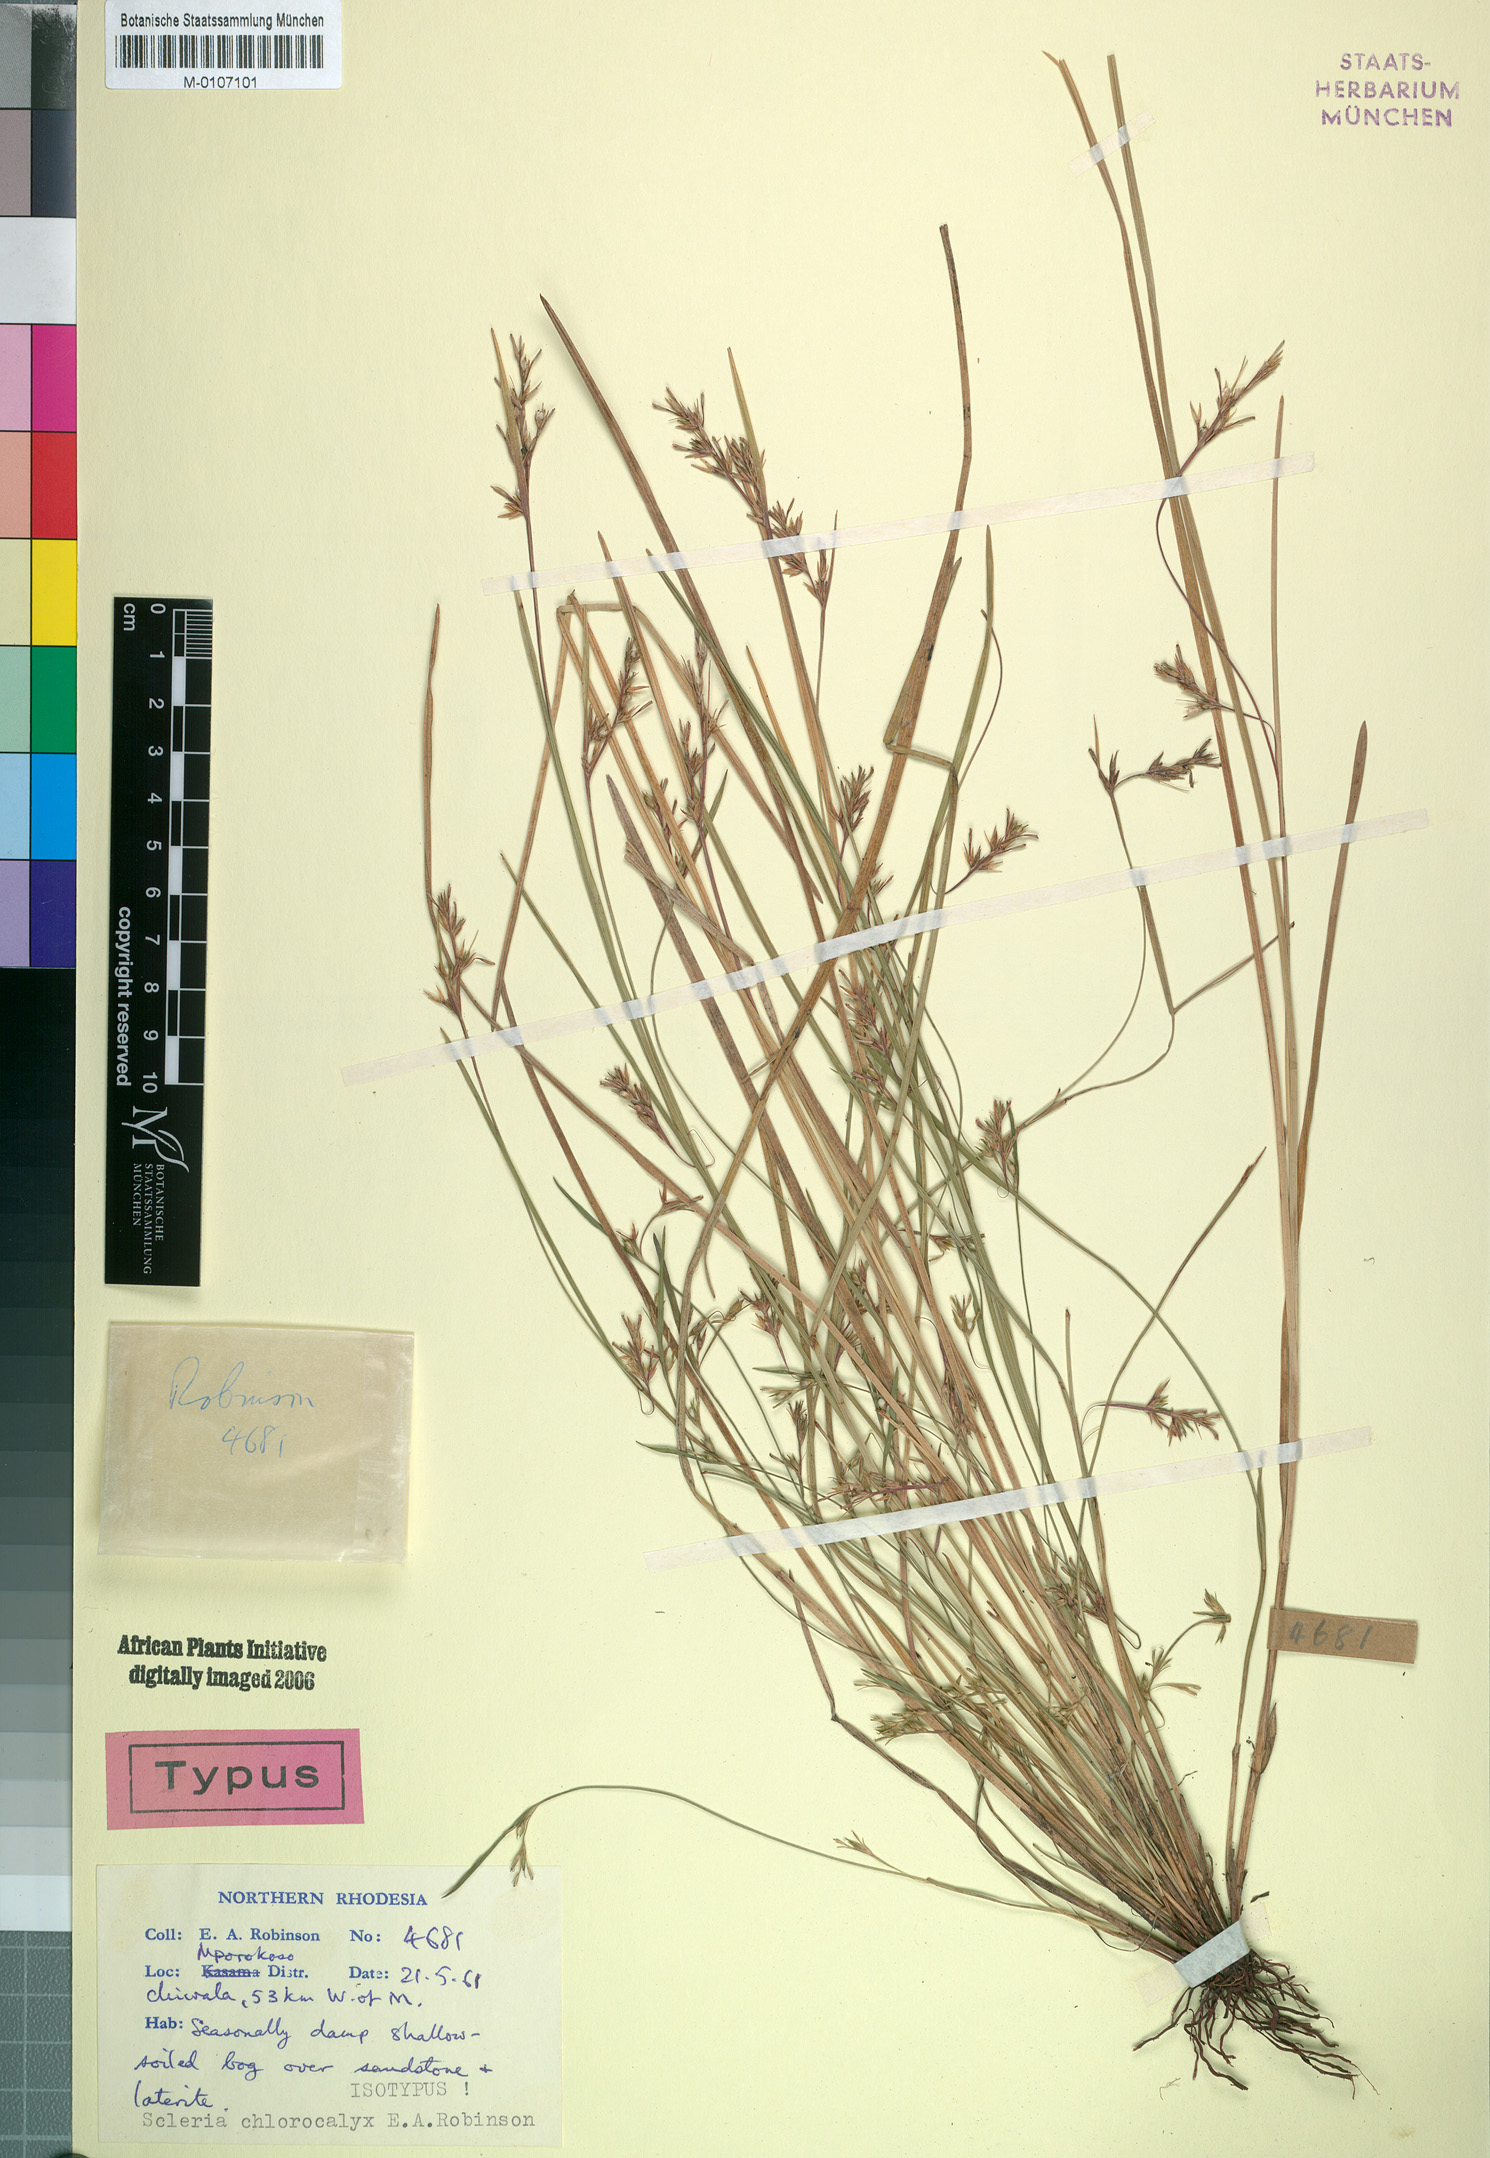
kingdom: Plantae
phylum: Tracheophyta
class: Liliopsida
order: Poales
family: Cyperaceae
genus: Scleria
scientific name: Scleria chlorocalyx
